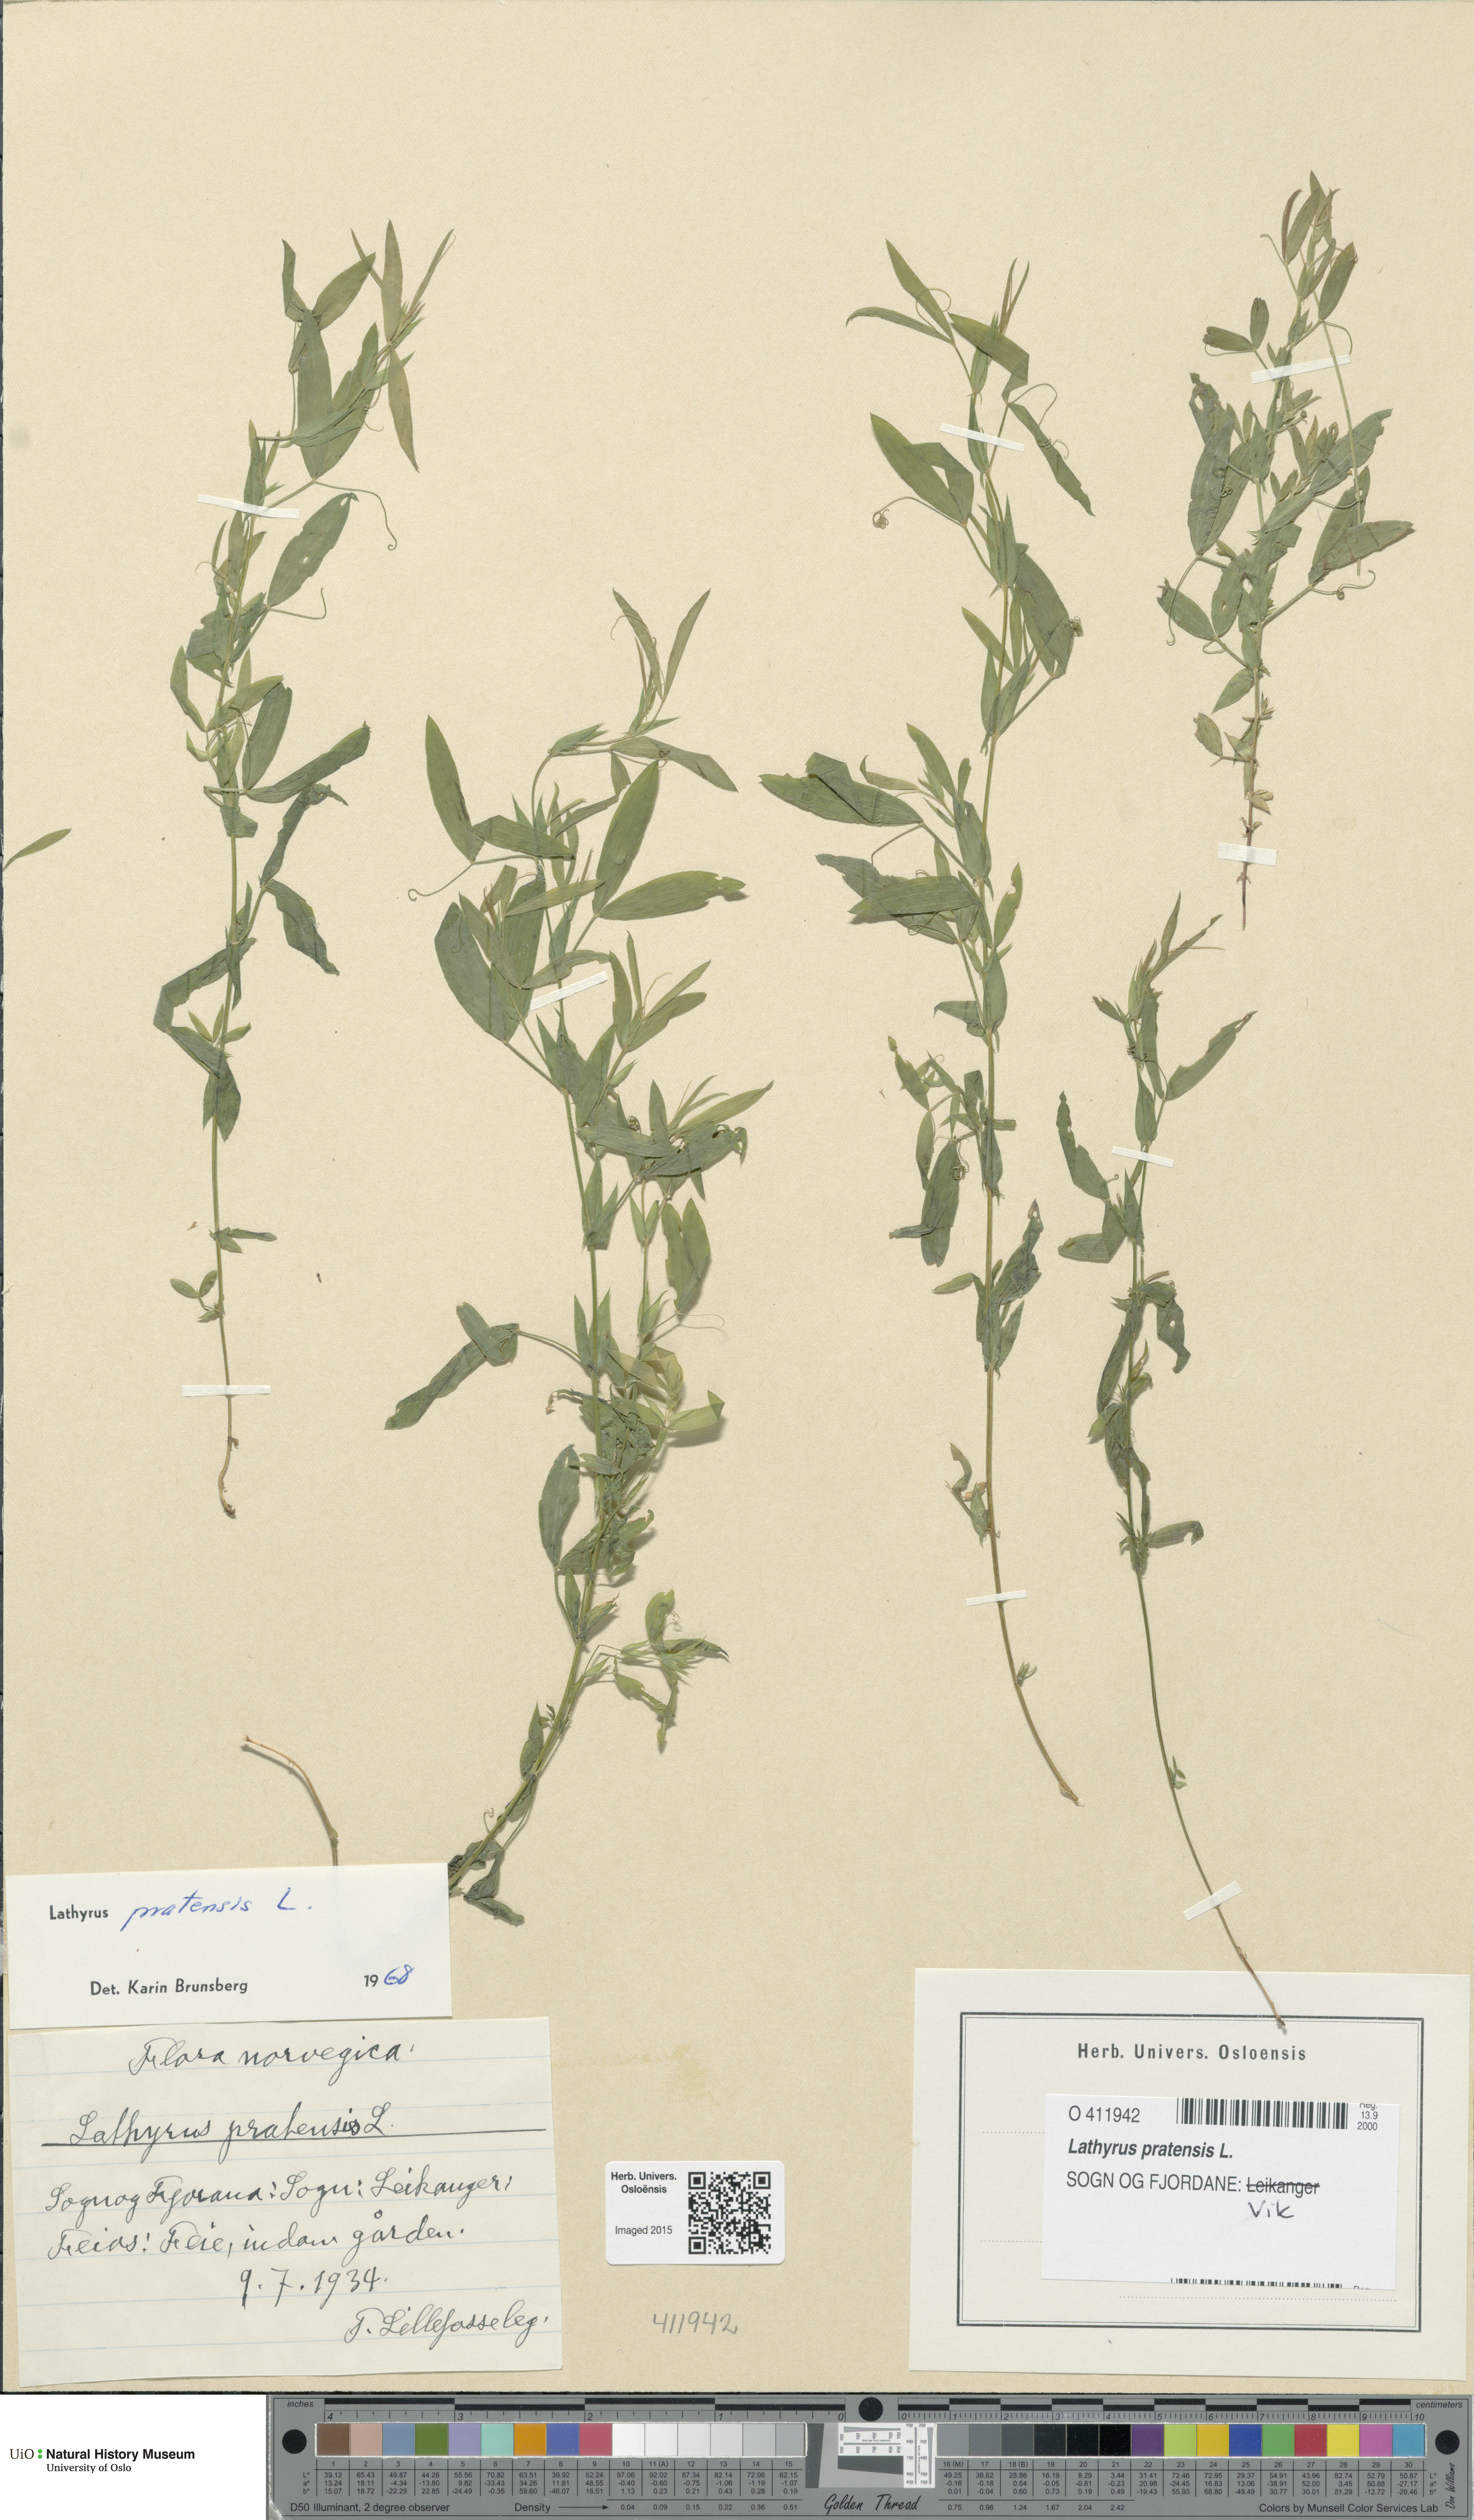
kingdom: Plantae
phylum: Tracheophyta
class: Magnoliopsida
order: Fabales
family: Fabaceae
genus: Lathyrus
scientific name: Lathyrus pratensis
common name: Meadow vetchling
